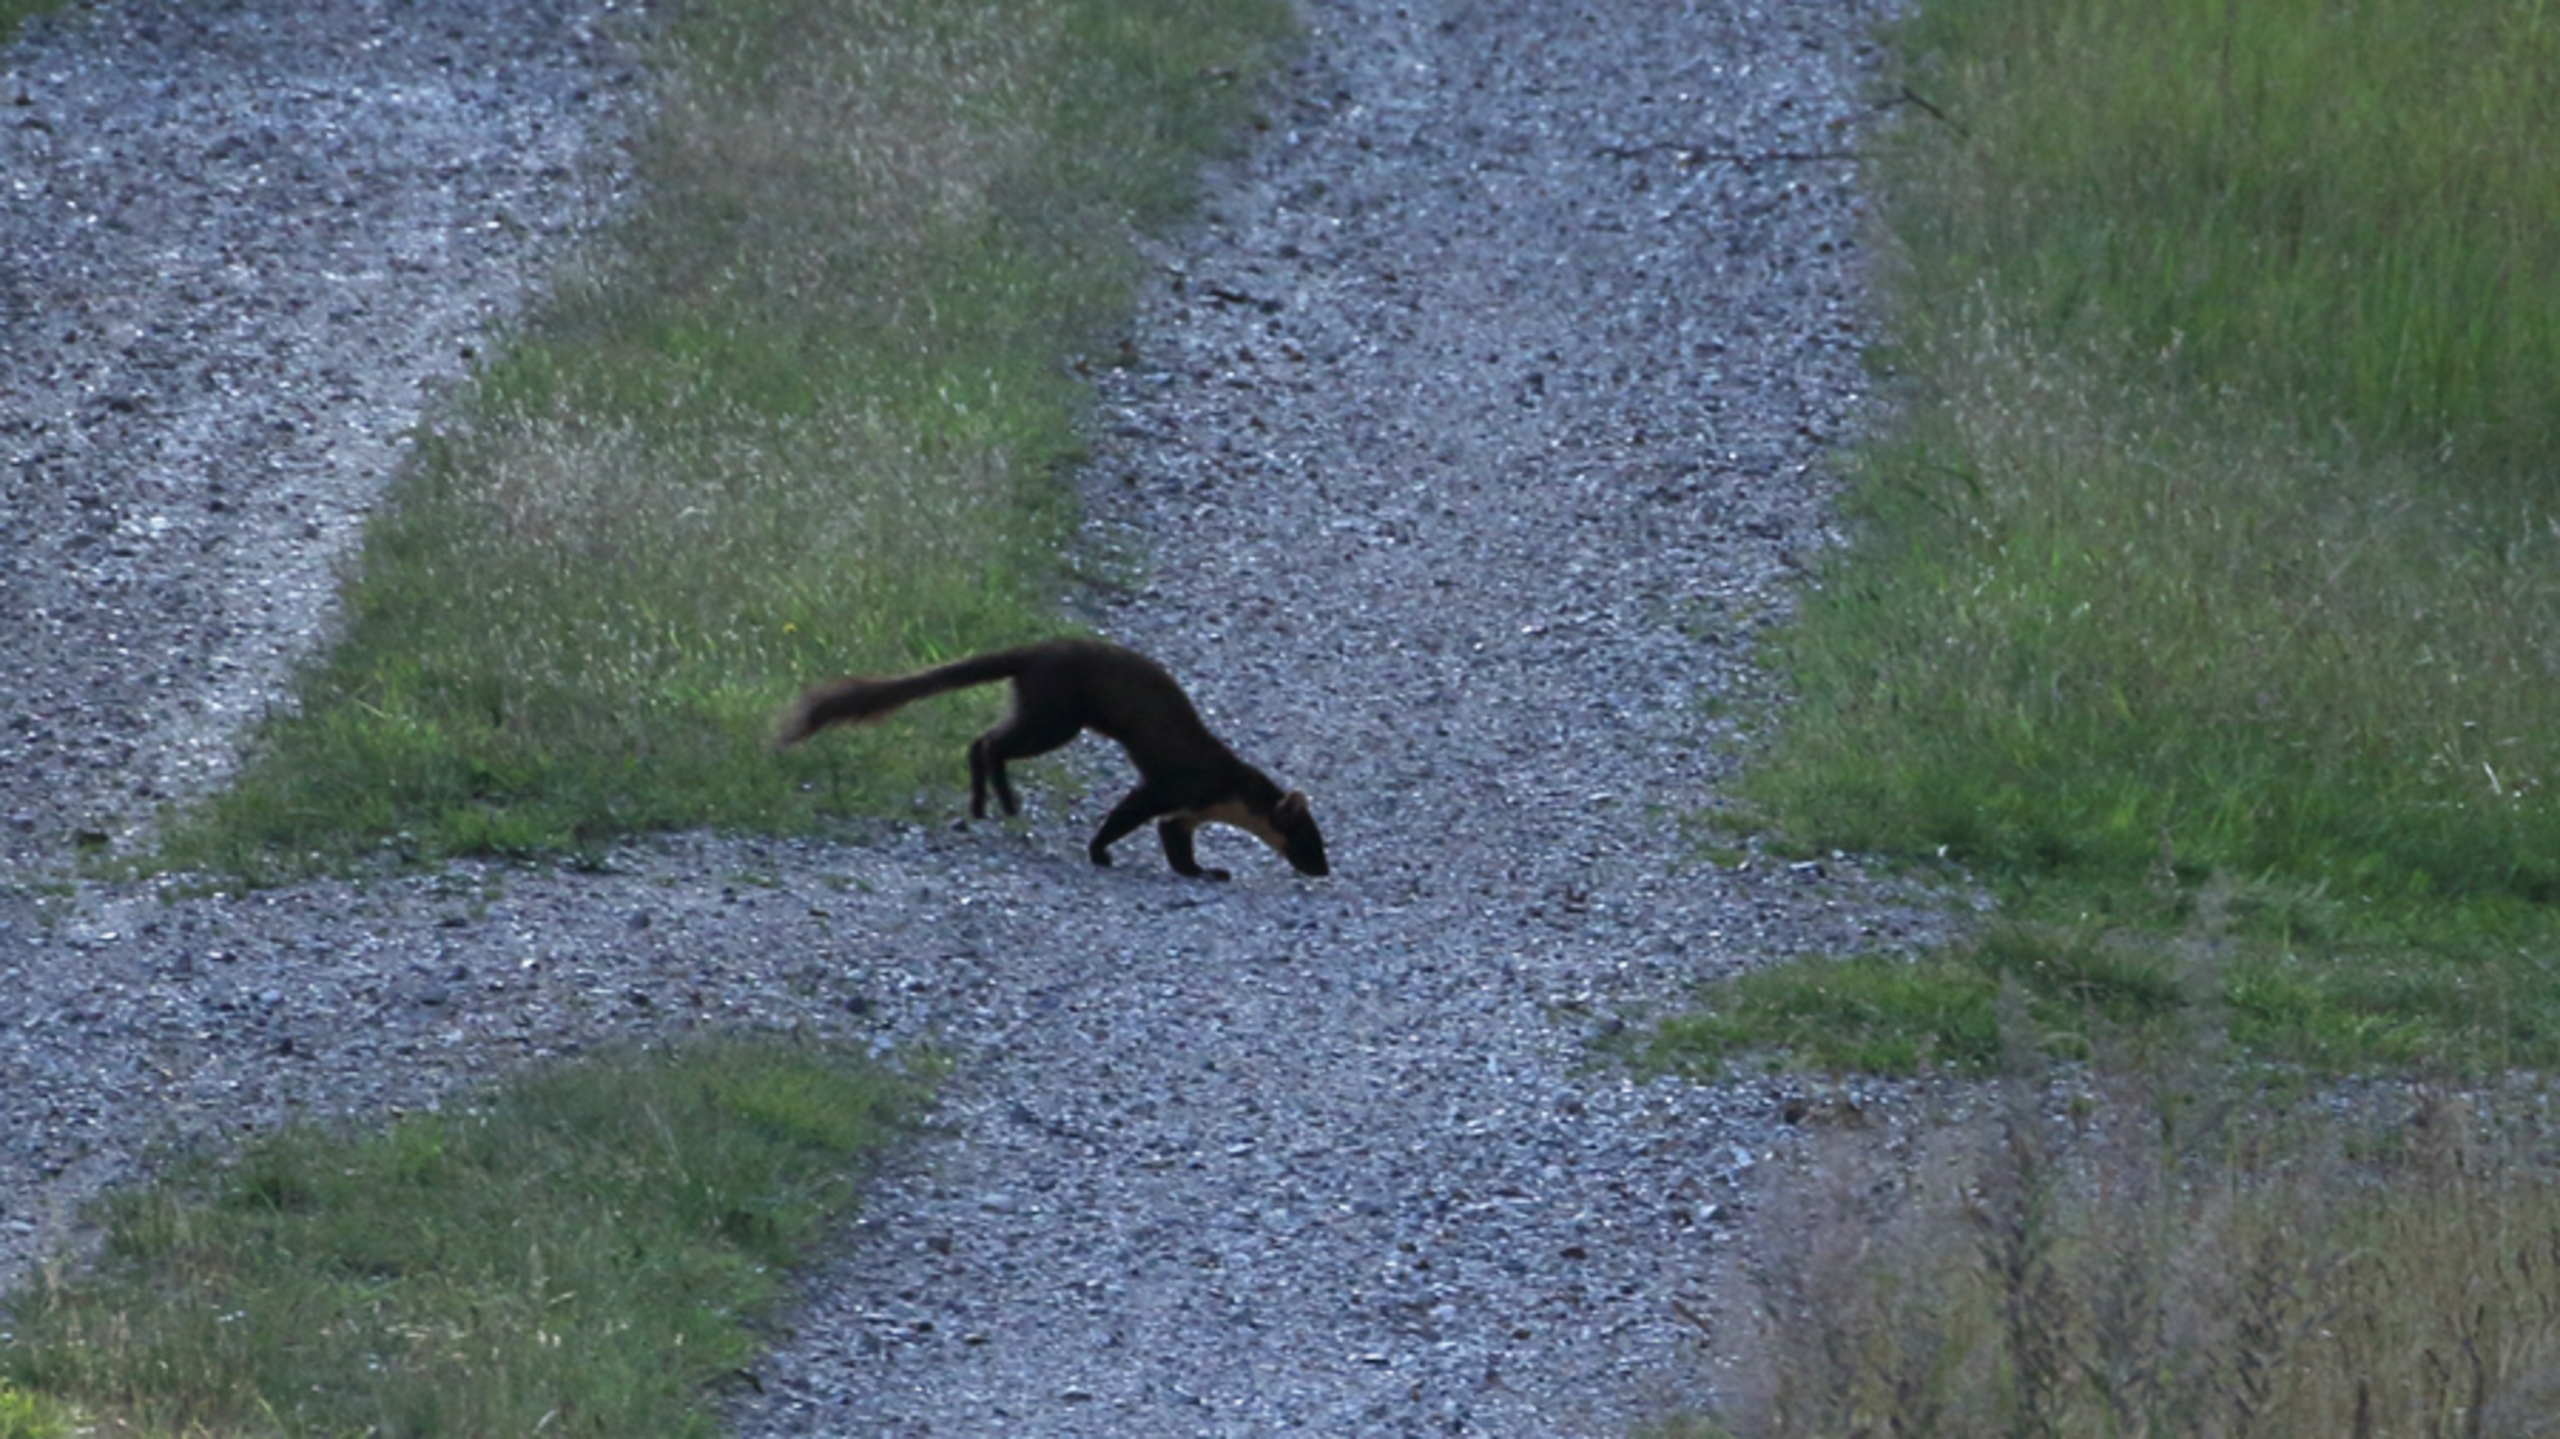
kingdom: Animalia
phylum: Chordata
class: Mammalia
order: Carnivora
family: Mustelidae
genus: Martes
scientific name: Martes martes
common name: Skovmår
